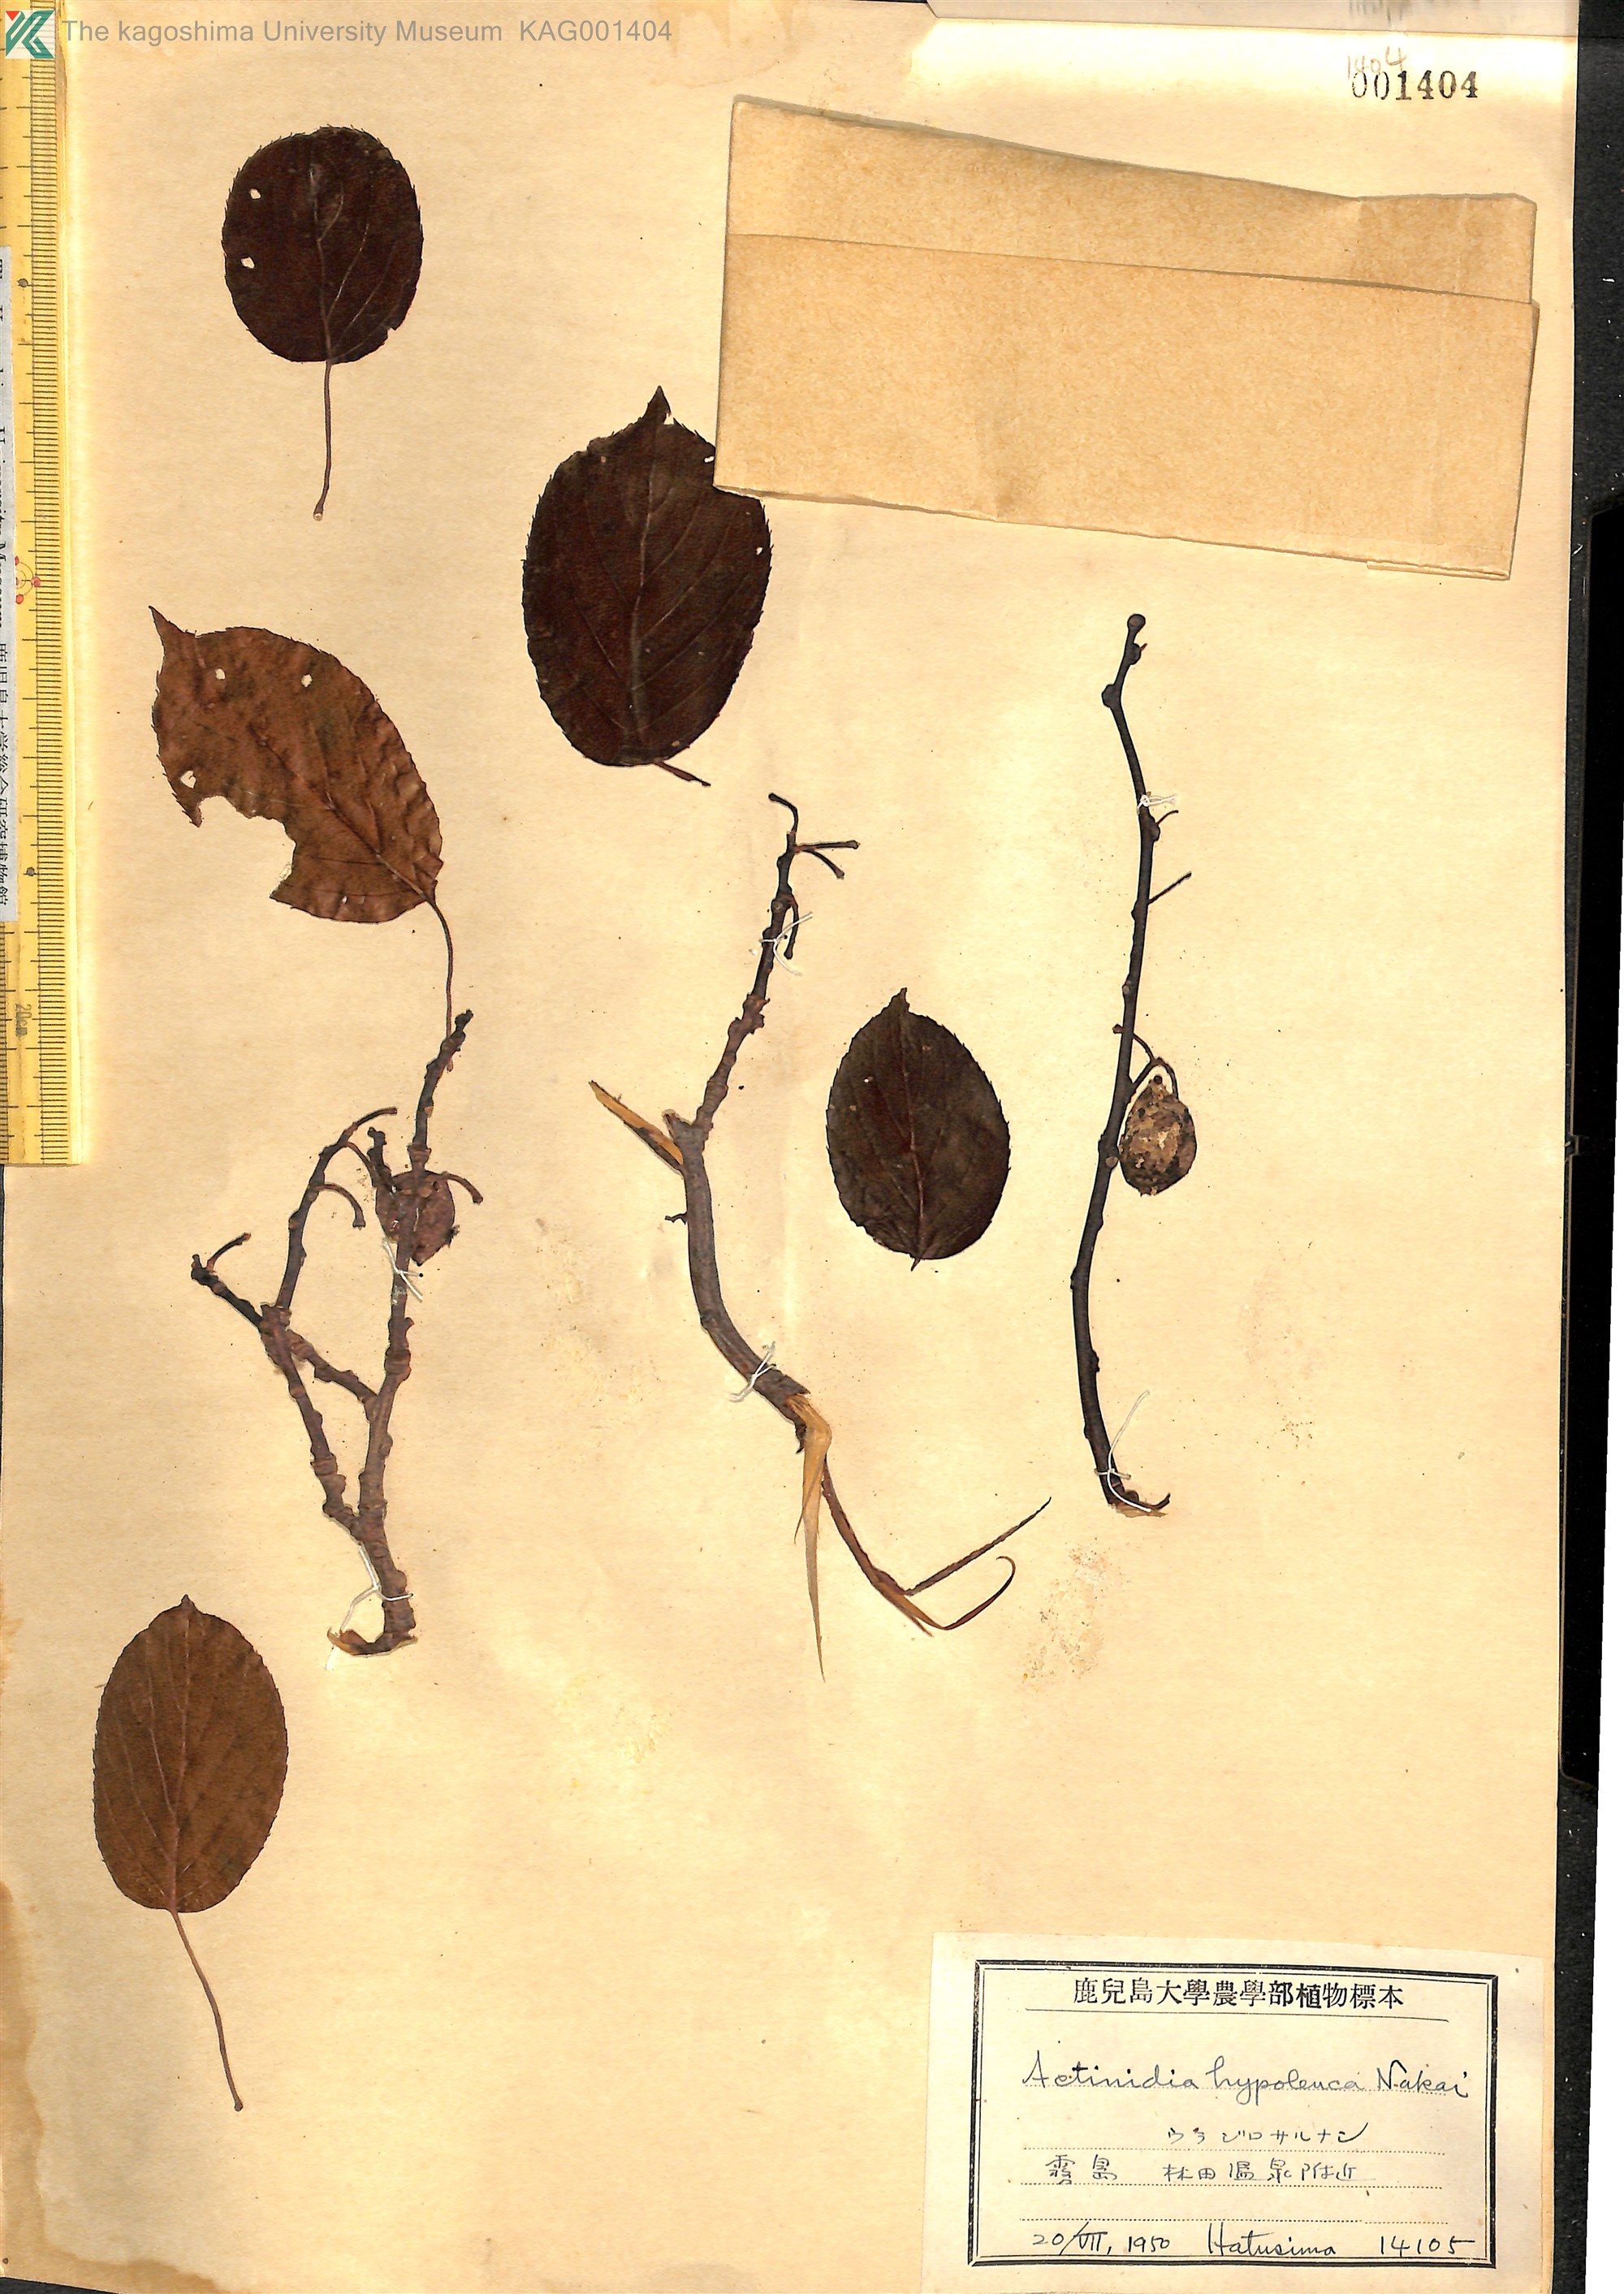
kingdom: Plantae
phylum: Tracheophyta
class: Magnoliopsida
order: Ericales
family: Actinidiaceae
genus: Actinidia
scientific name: Actinidia arguta
